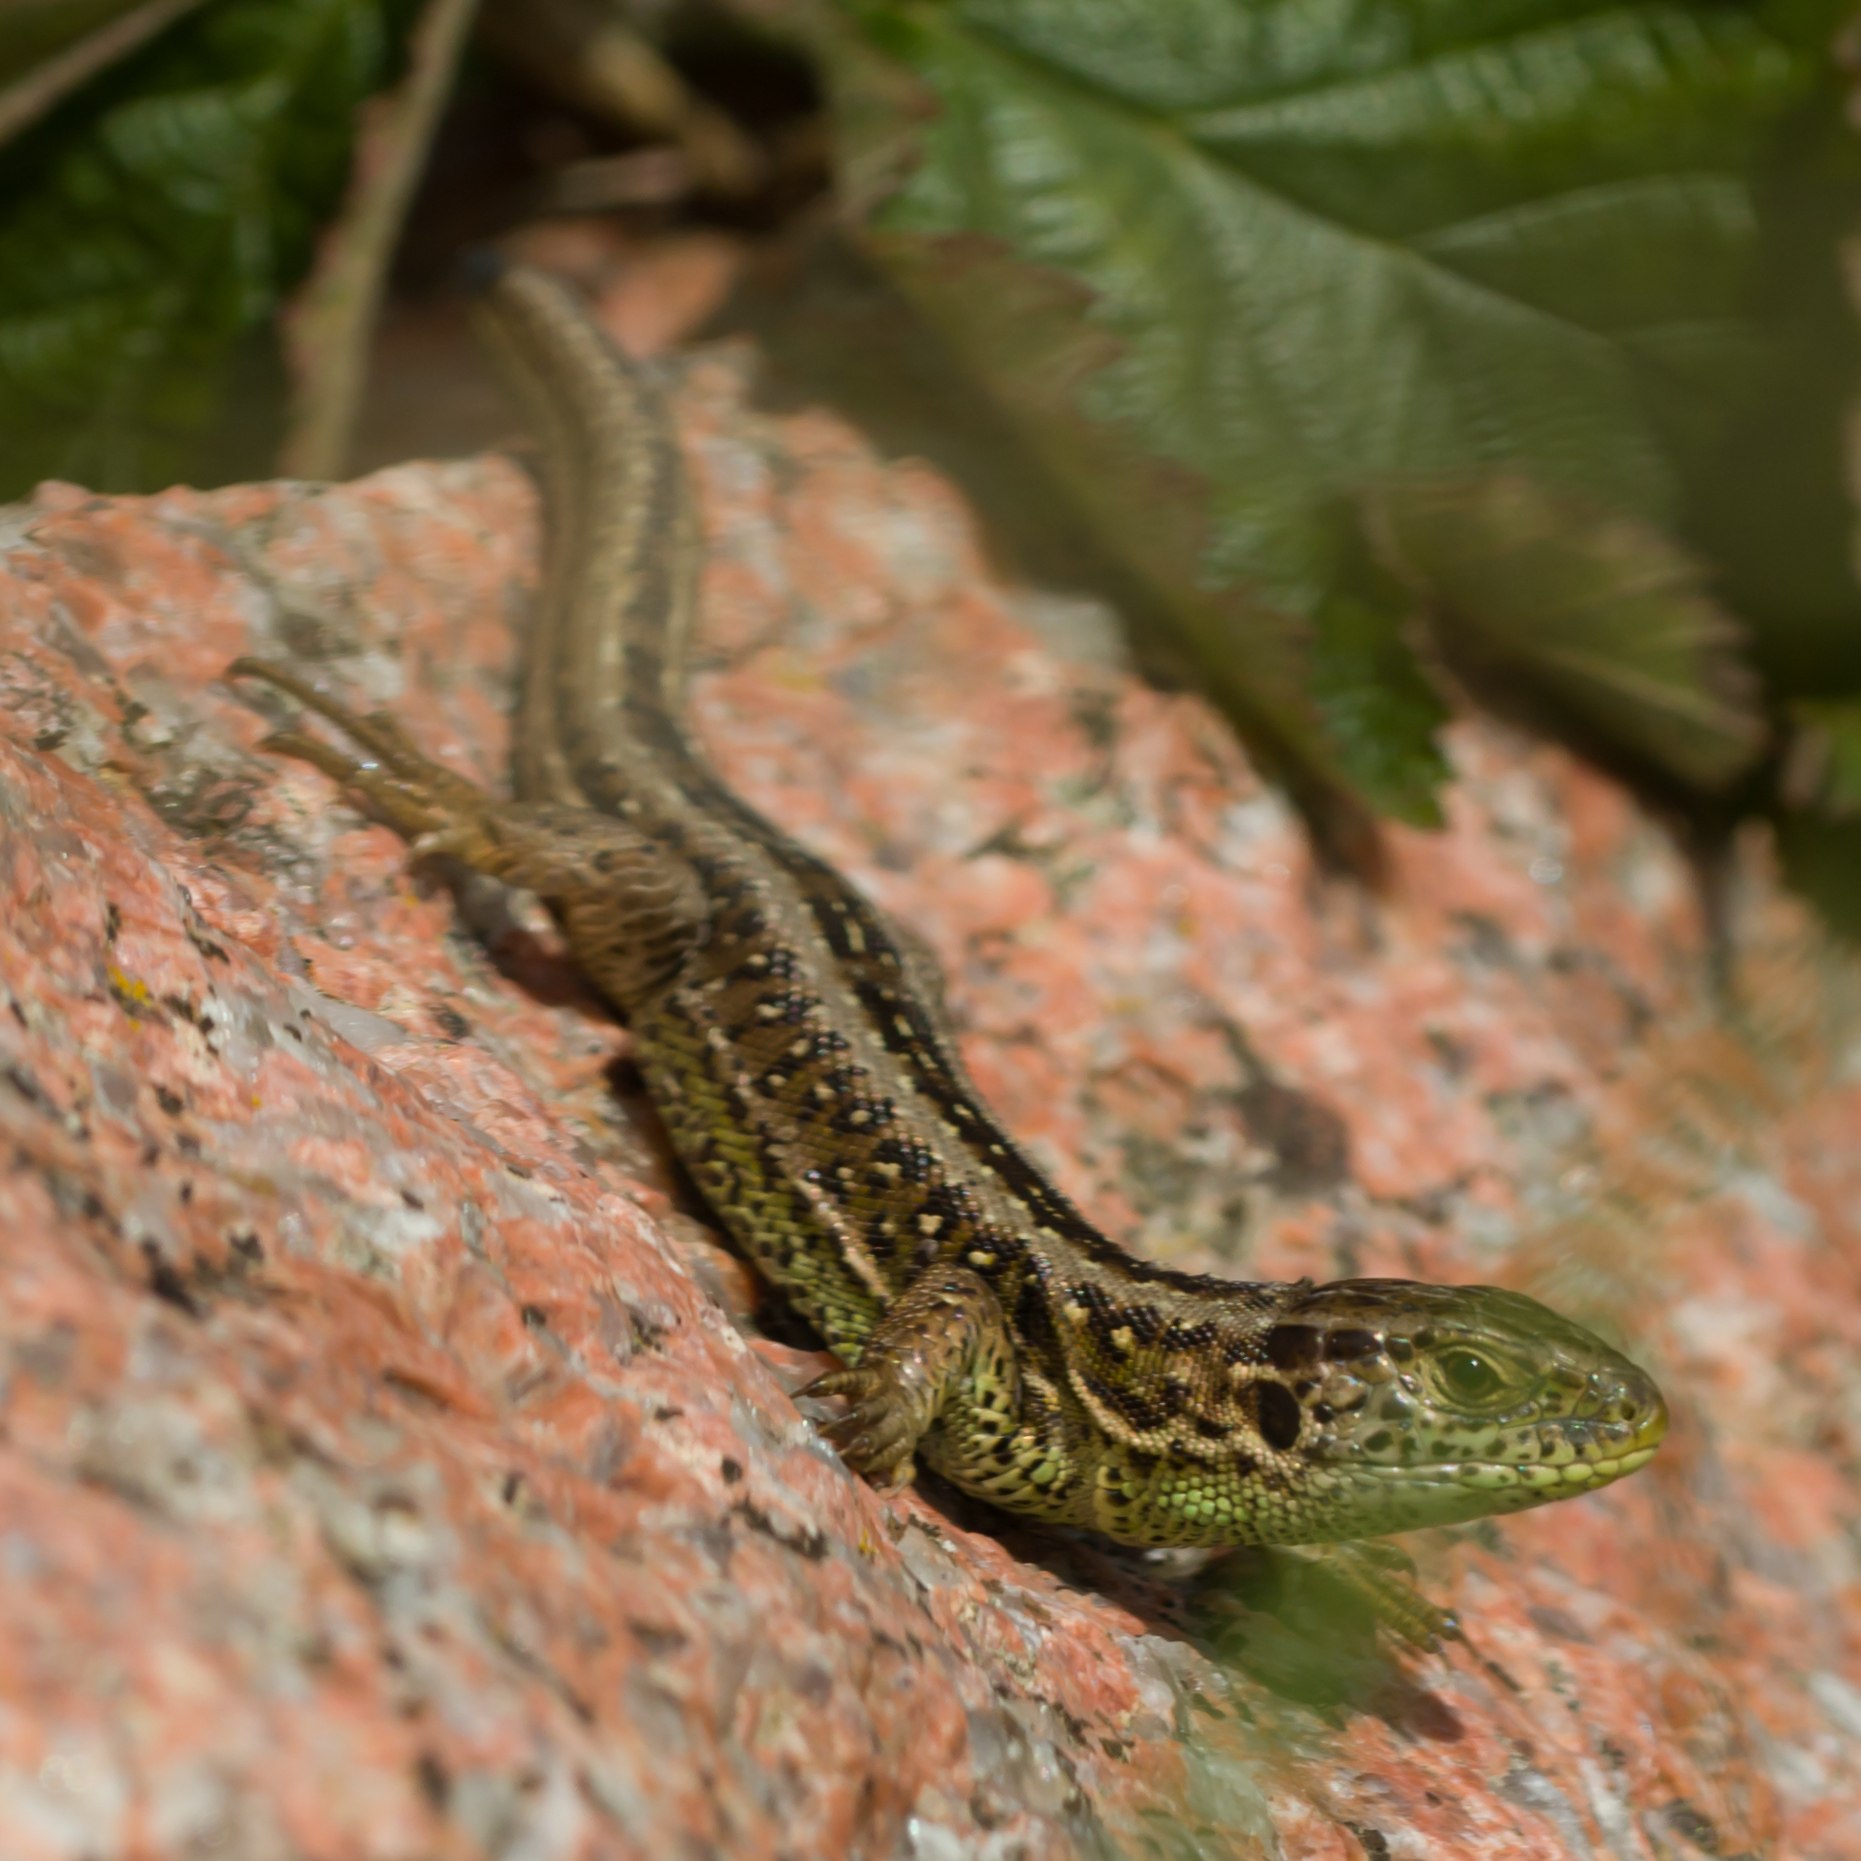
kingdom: Animalia
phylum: Chordata
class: Squamata
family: Lacertidae
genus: Lacerta
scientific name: Lacerta agilis
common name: Markfirben
